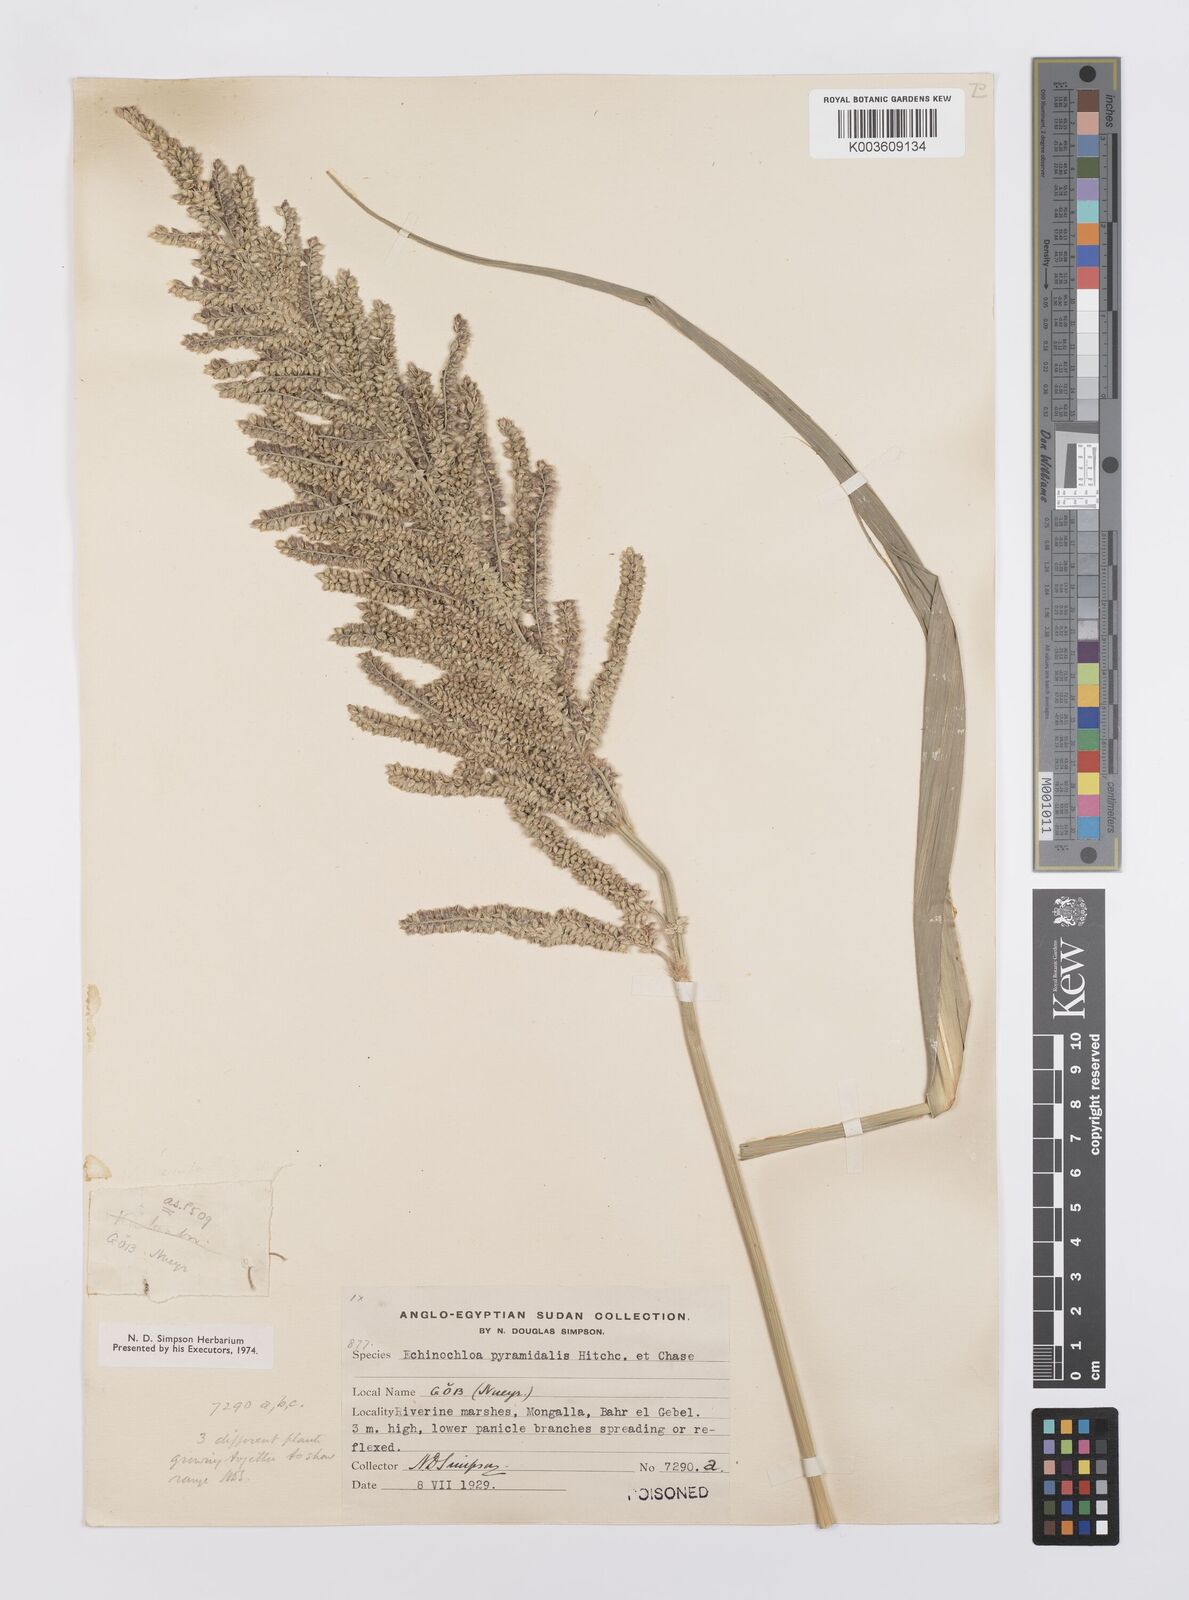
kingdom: Plantae
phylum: Tracheophyta
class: Liliopsida
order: Poales
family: Poaceae
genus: Echinochloa
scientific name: Echinochloa pyramidalis
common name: Antelope grass
